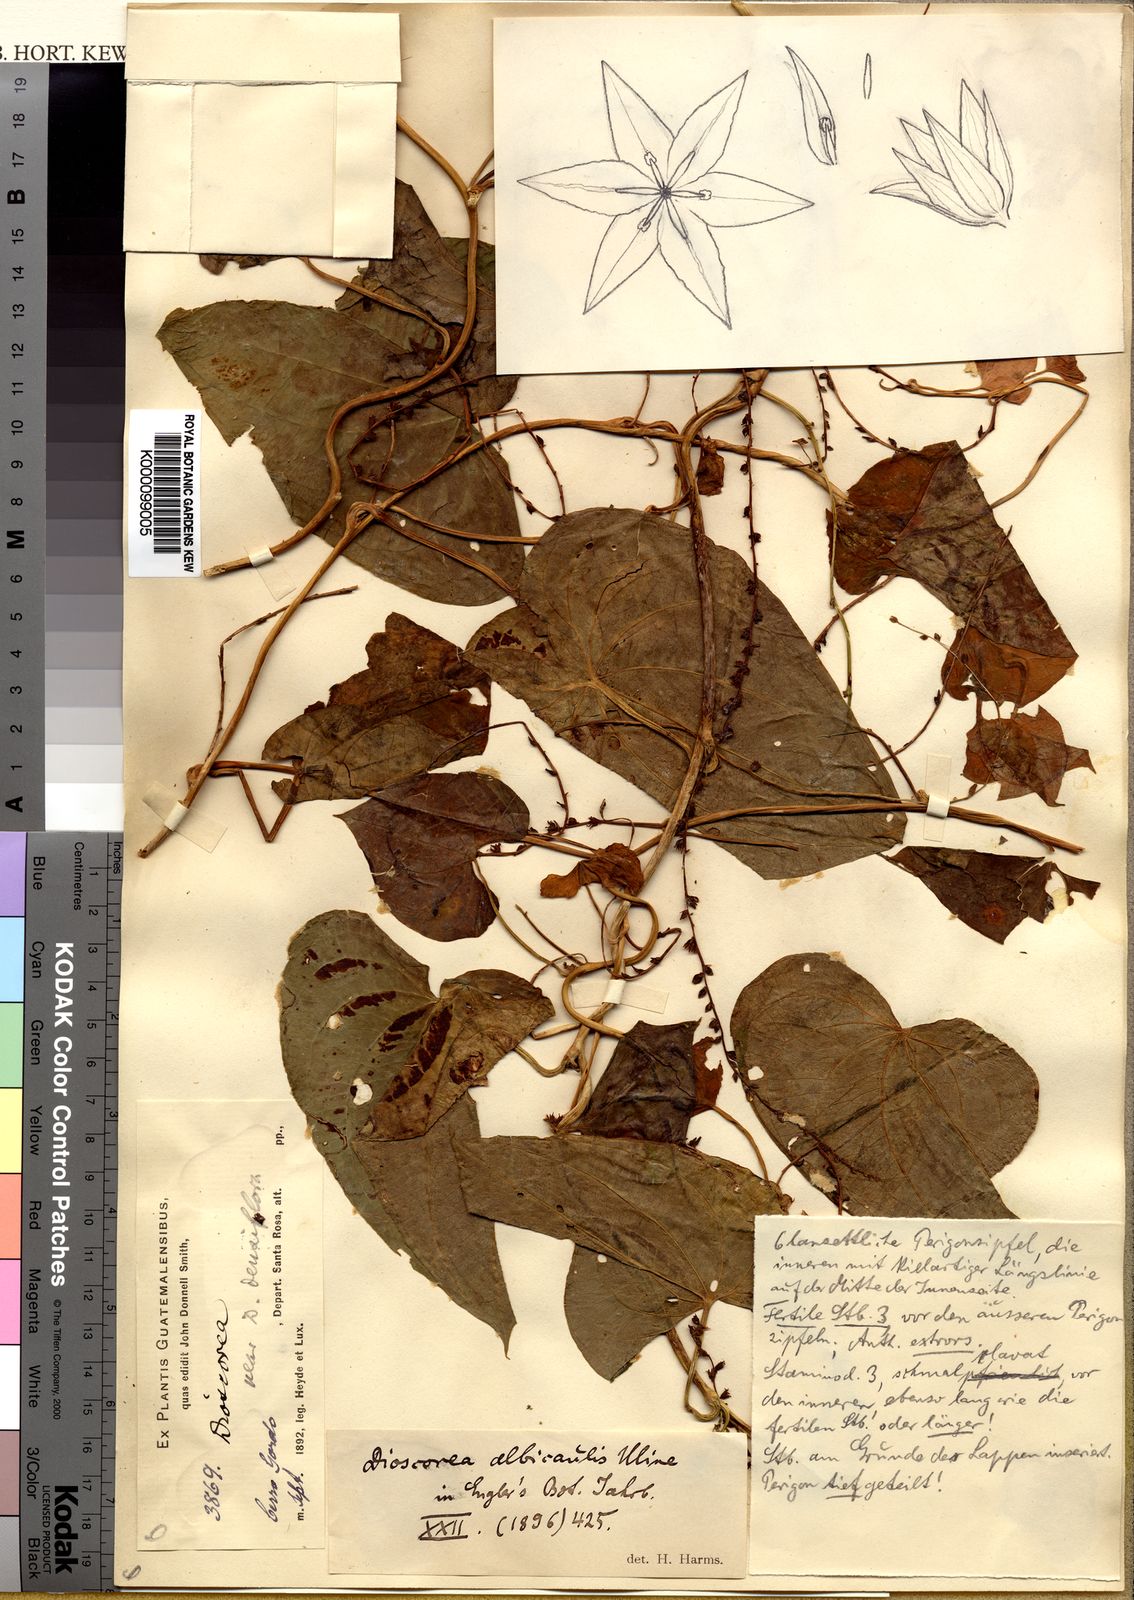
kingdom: Plantae
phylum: Tracheophyta
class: Liliopsida
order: Dioscoreales
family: Dioscoreaceae
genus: Dioscorea
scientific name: Dioscorea dicranandra
